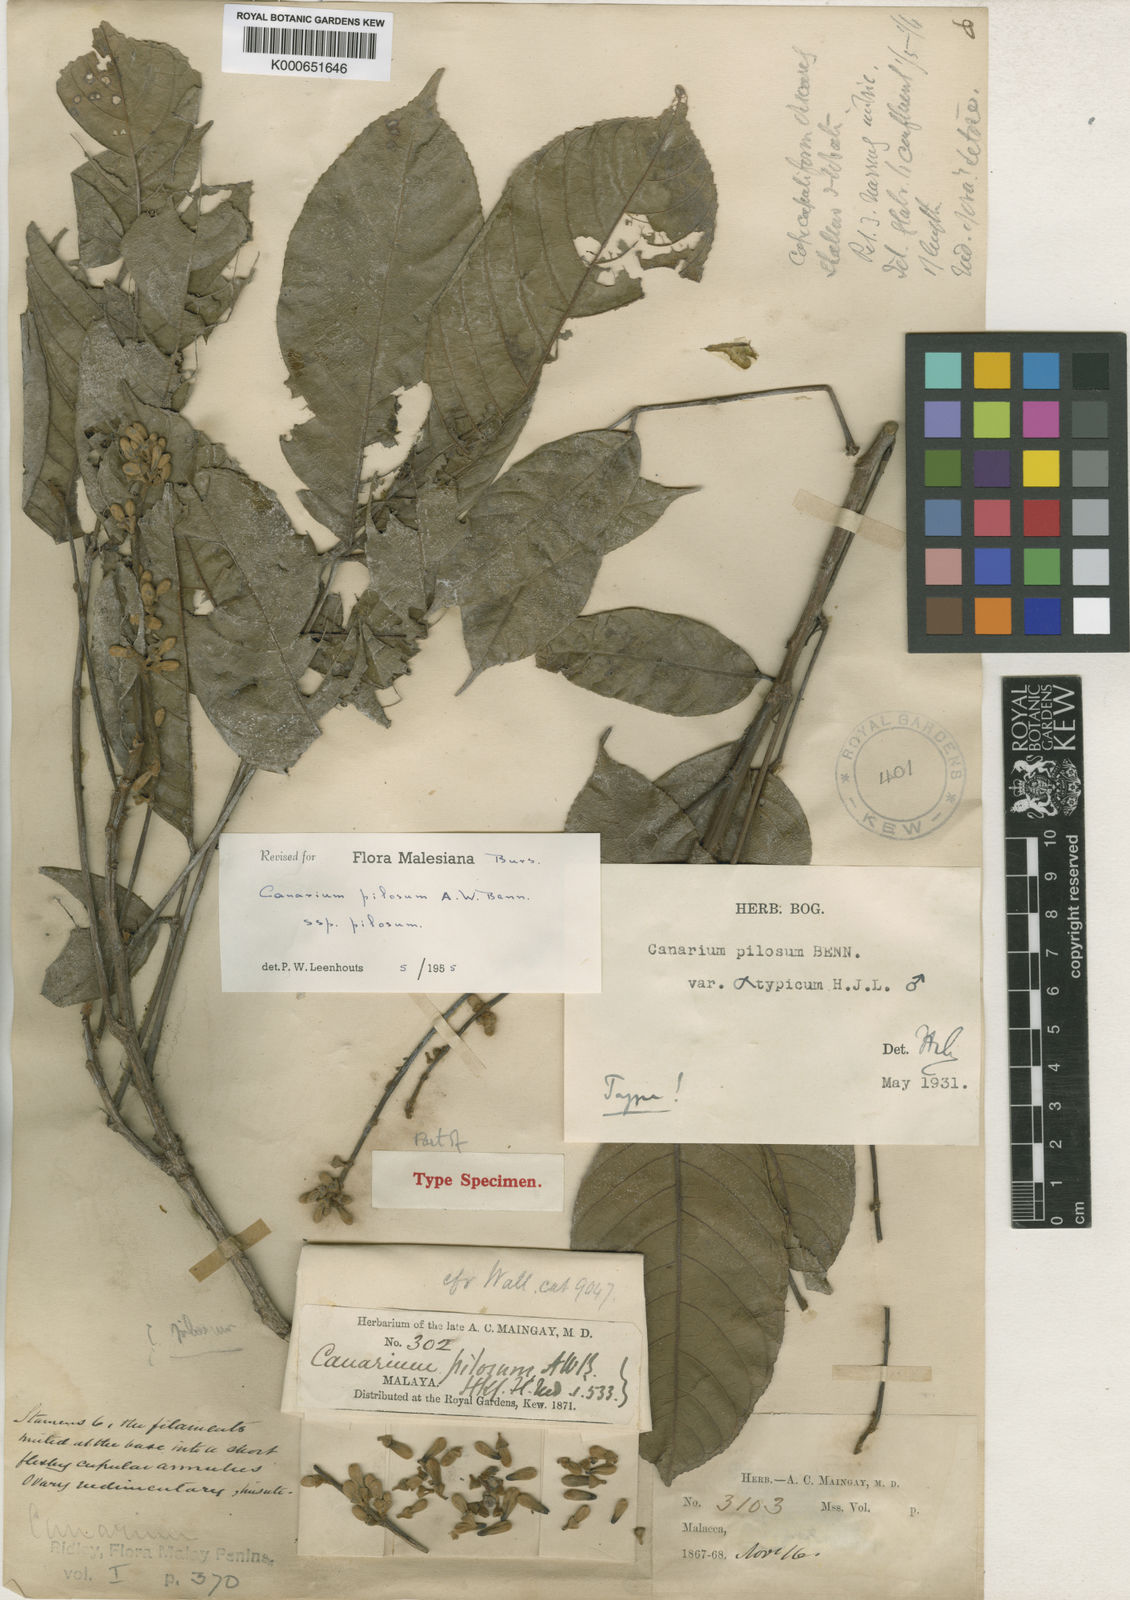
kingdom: Plantae
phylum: Tracheophyta
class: Magnoliopsida
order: Sapindales
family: Burseraceae
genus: Canarium
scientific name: Canarium pilosum
